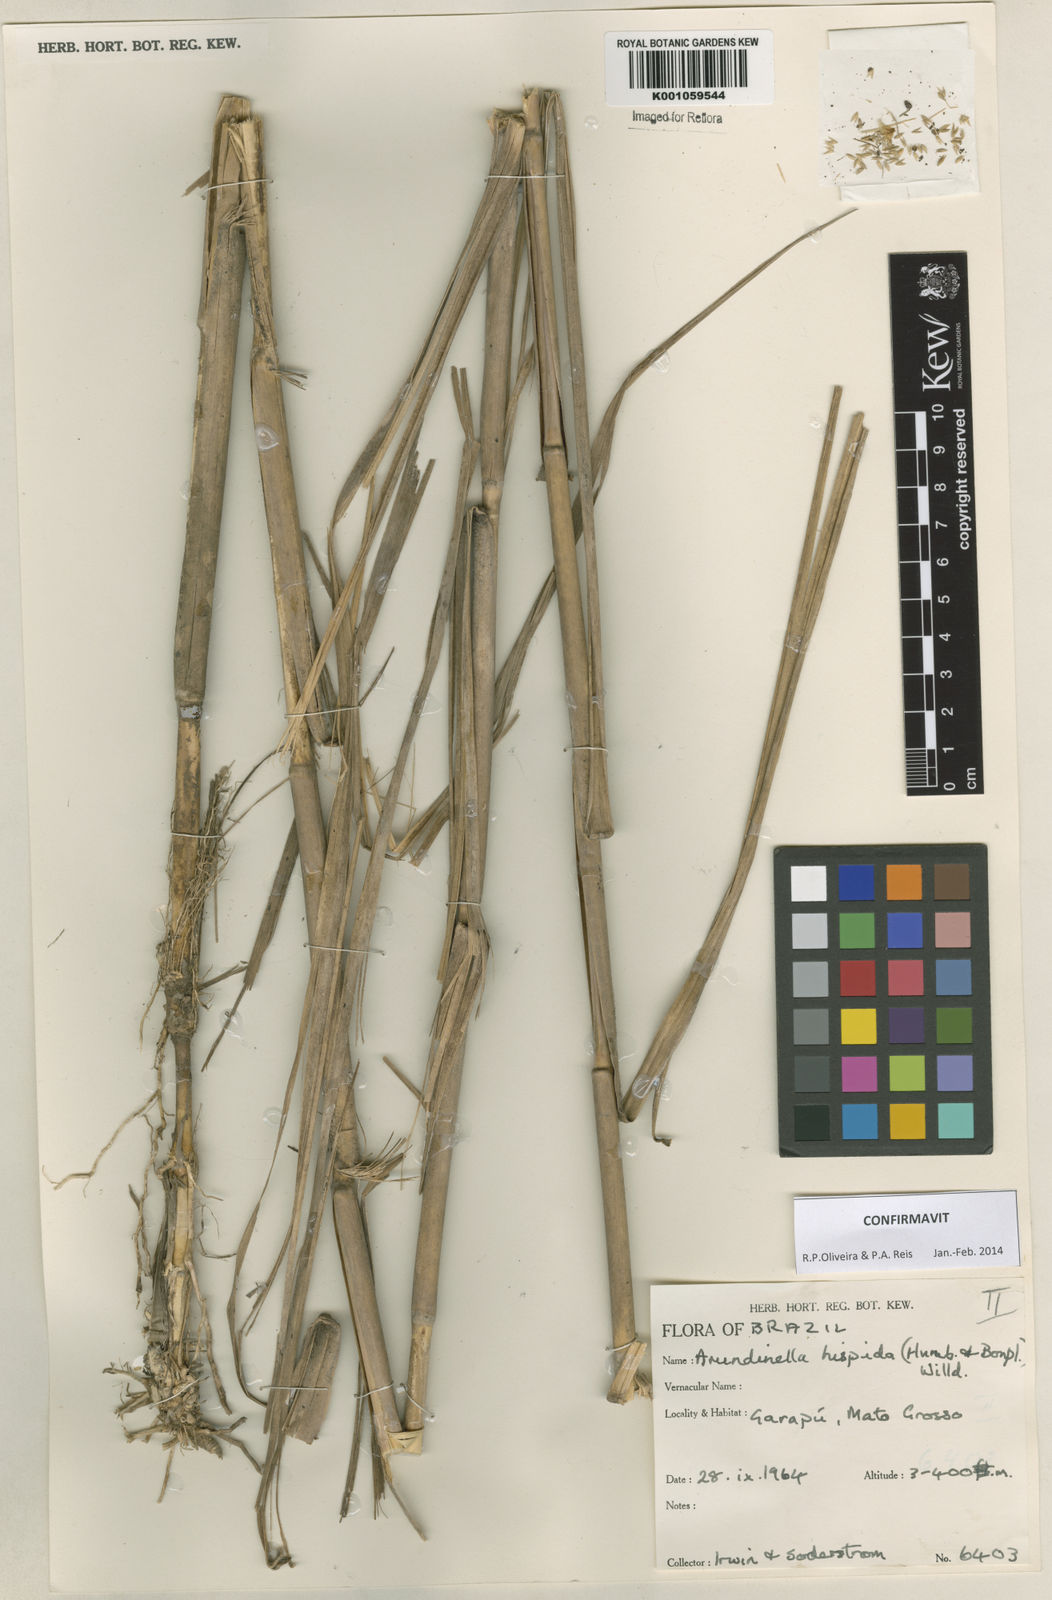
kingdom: Plantae
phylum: Tracheophyta
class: Liliopsida
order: Poales
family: Poaceae
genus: Arundinella
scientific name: Arundinella hispida
